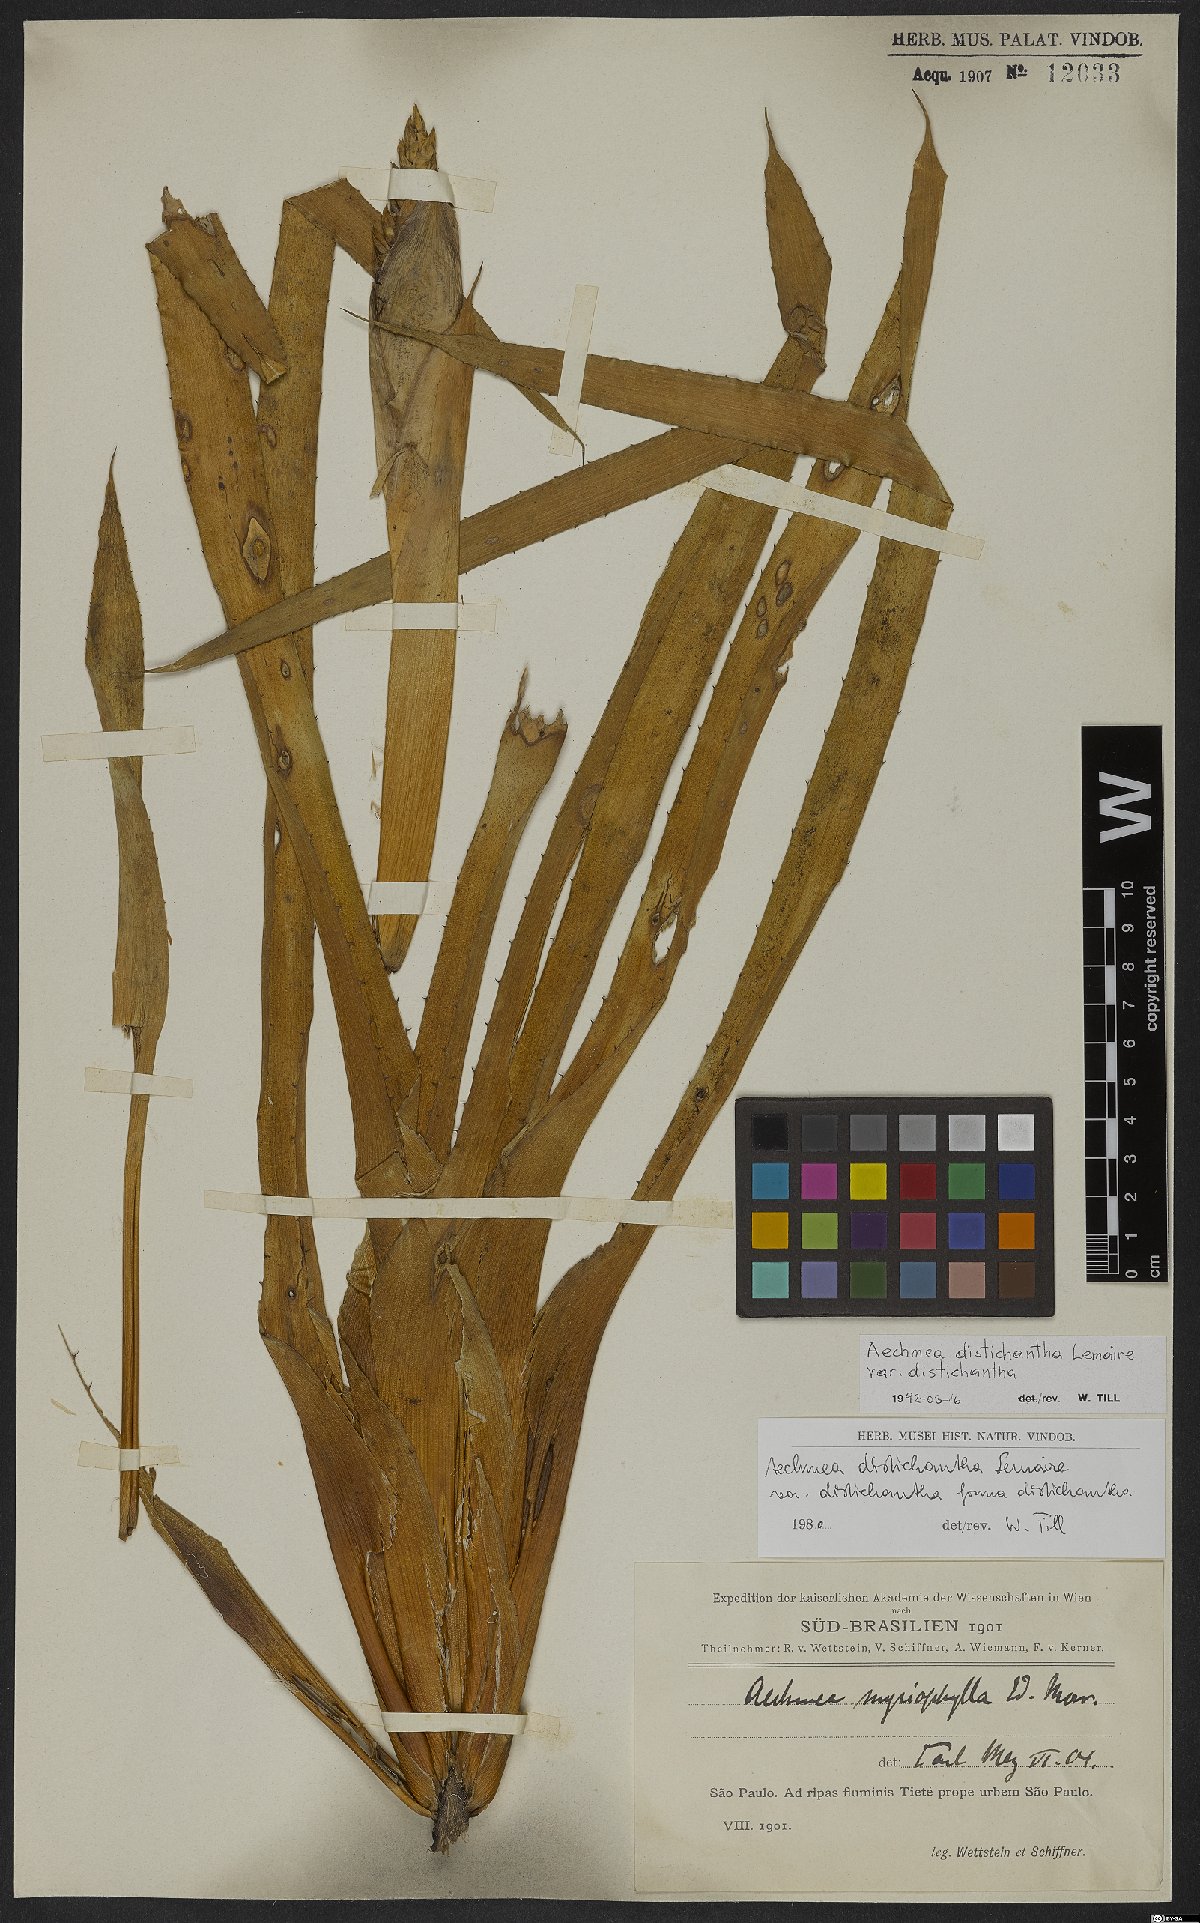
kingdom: Plantae
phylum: Tracheophyta
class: Liliopsida
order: Poales
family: Bromeliaceae
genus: Aechmea
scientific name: Aechmea distichantha
